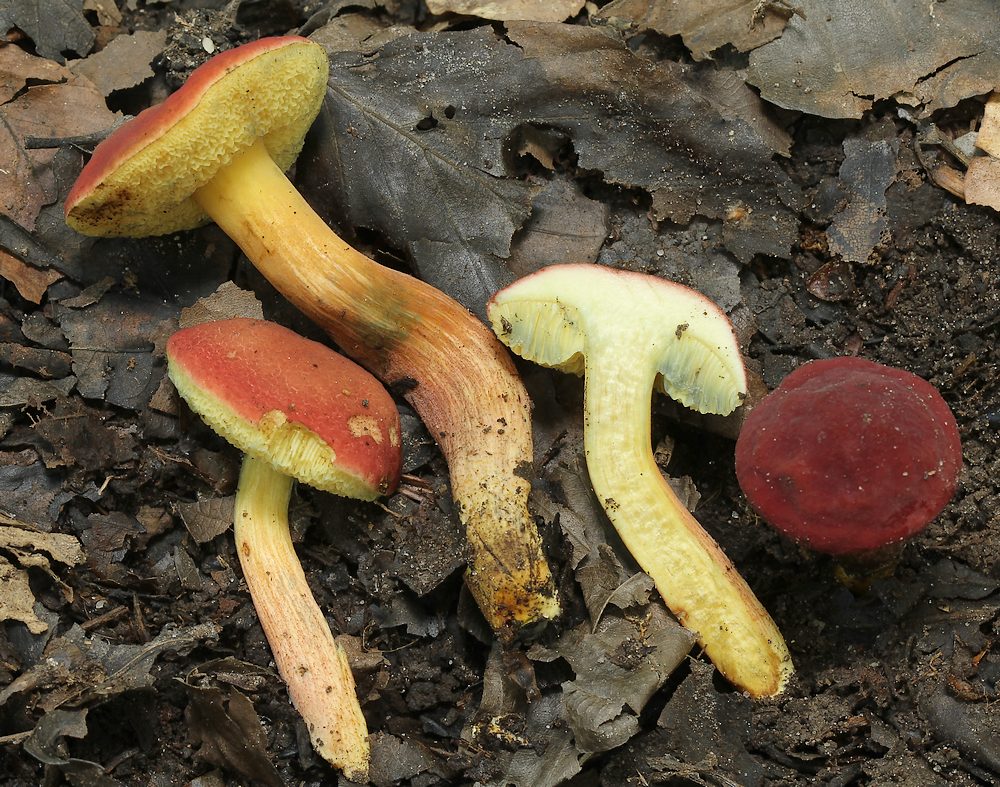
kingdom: Fungi
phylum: Basidiomycota
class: Agaricomycetes
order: Boletales
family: Boletaceae
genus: Hortiboletus
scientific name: Hortiboletus rubellus
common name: blodrød rørhat
